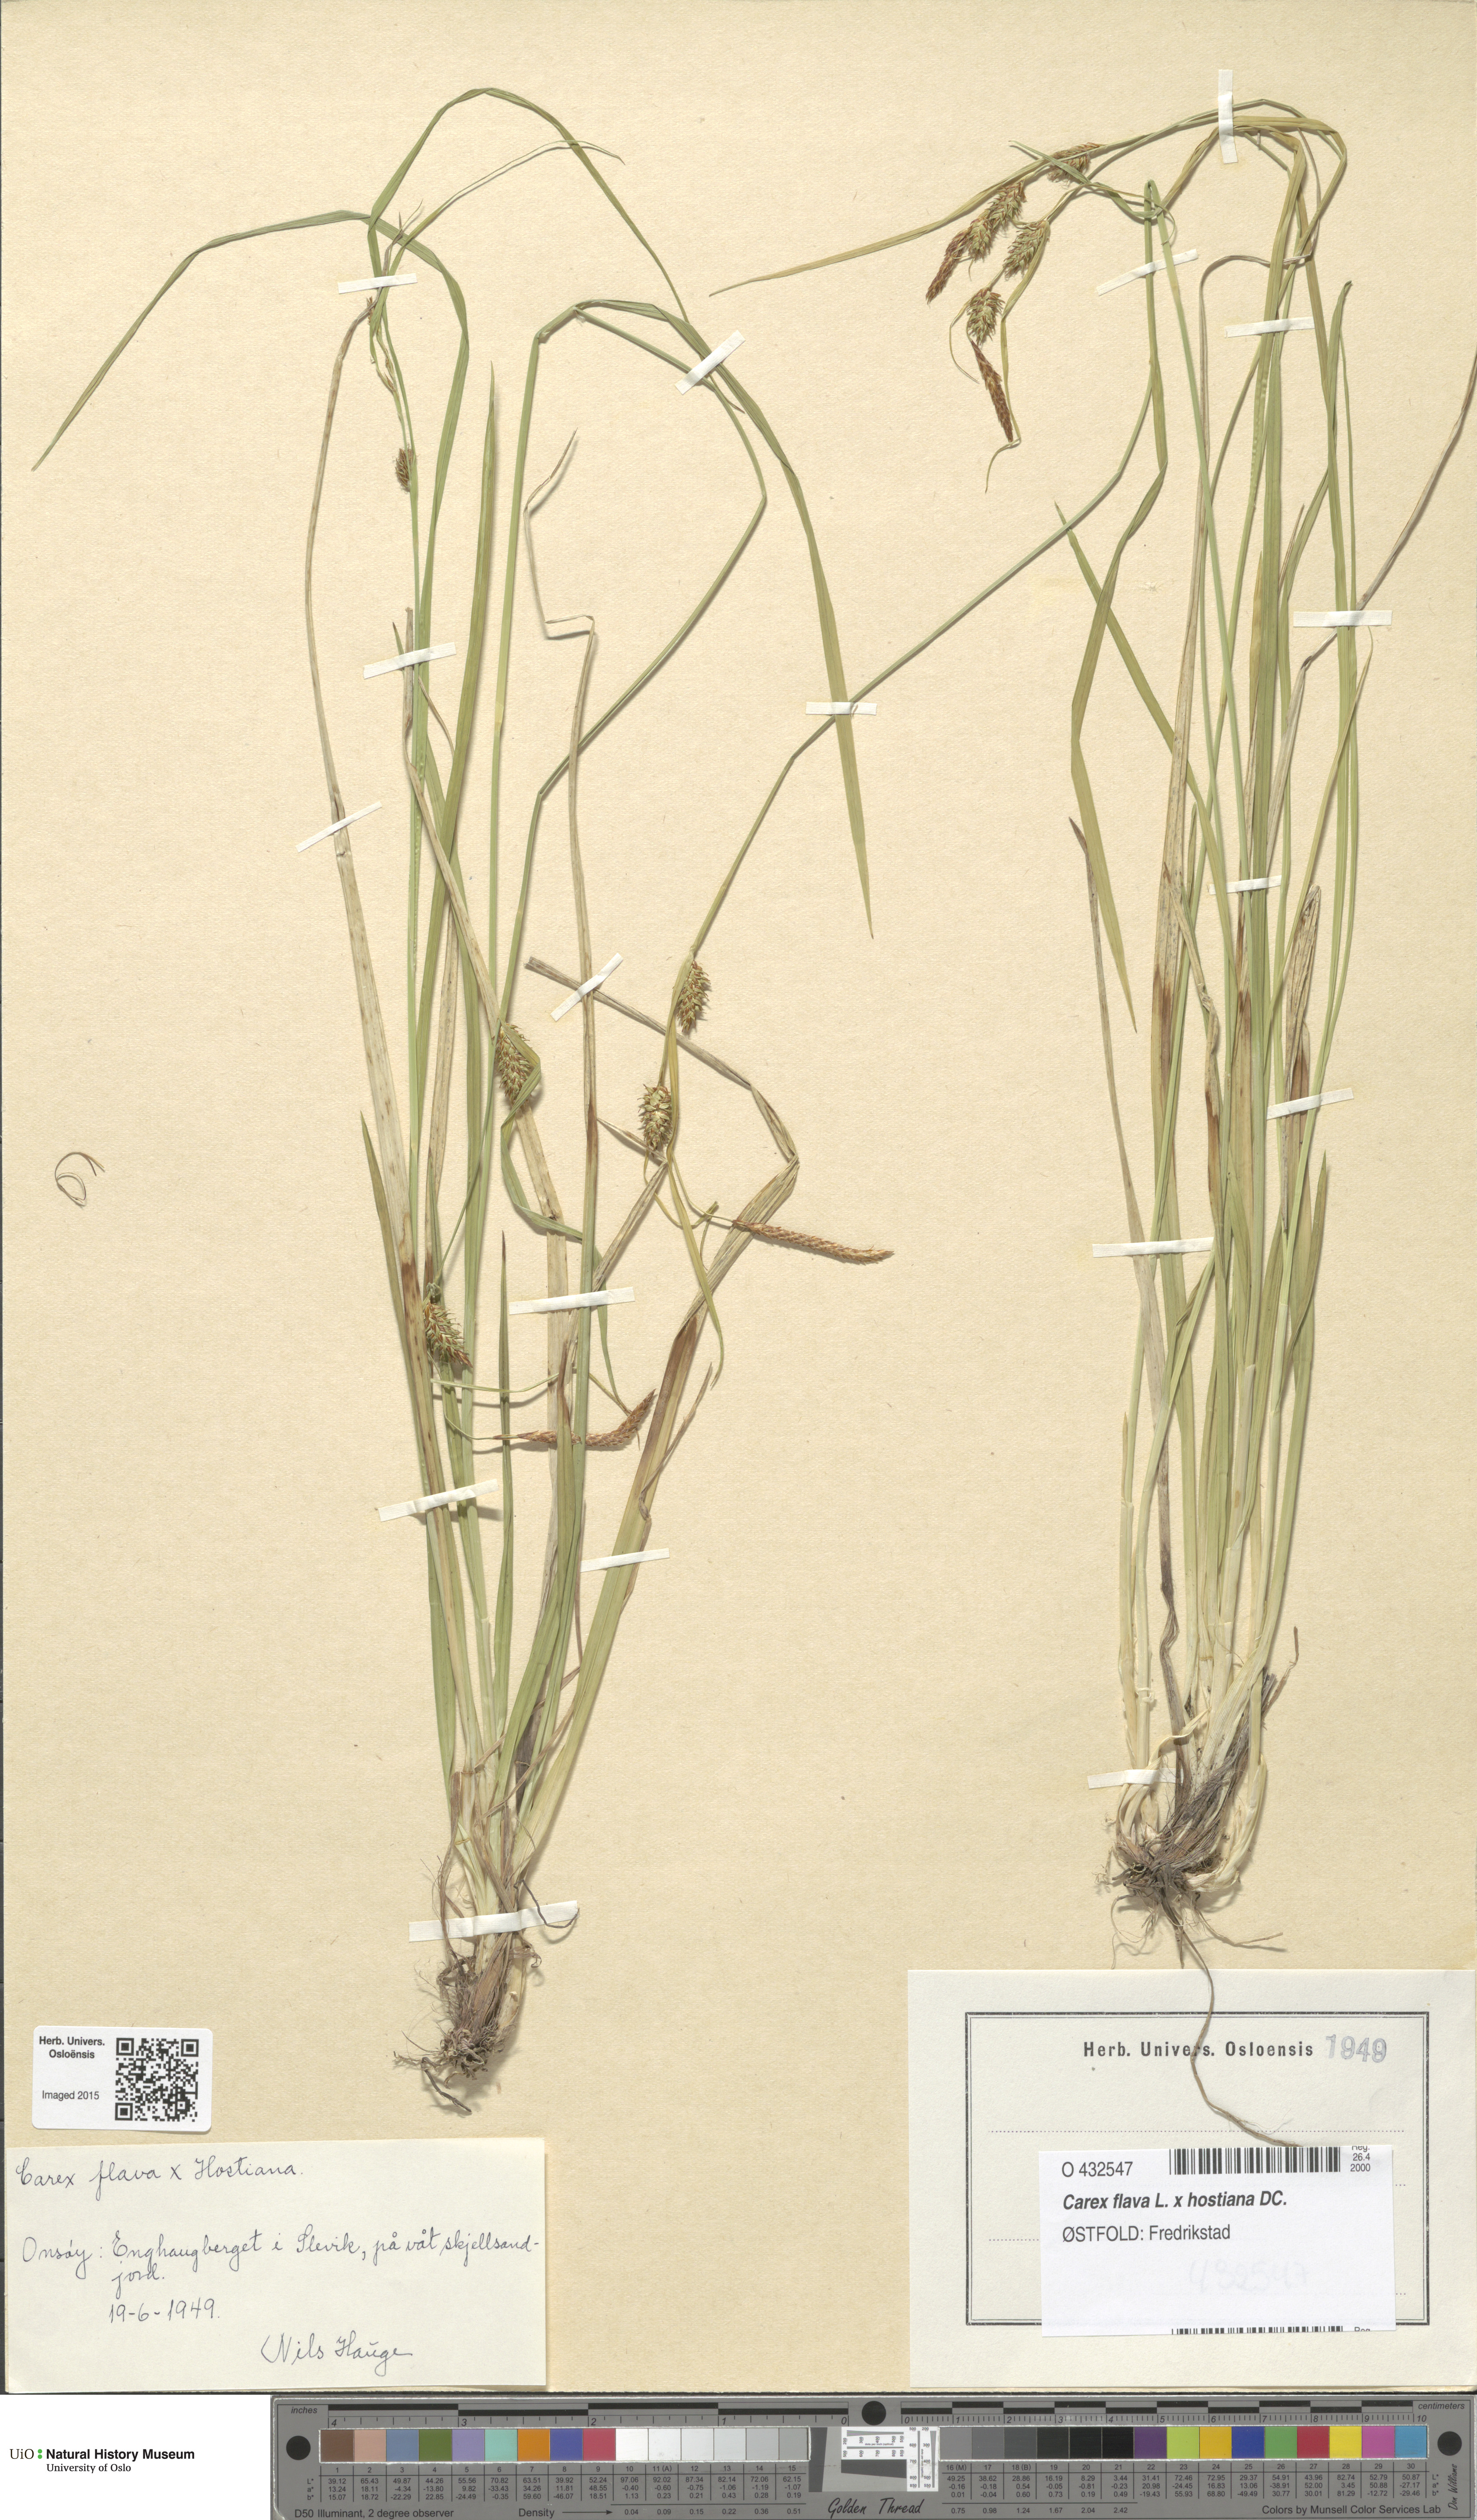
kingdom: Plantae
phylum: Tracheophyta
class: Liliopsida
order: Poales
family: Cyperaceae
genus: Carex
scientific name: Carex
